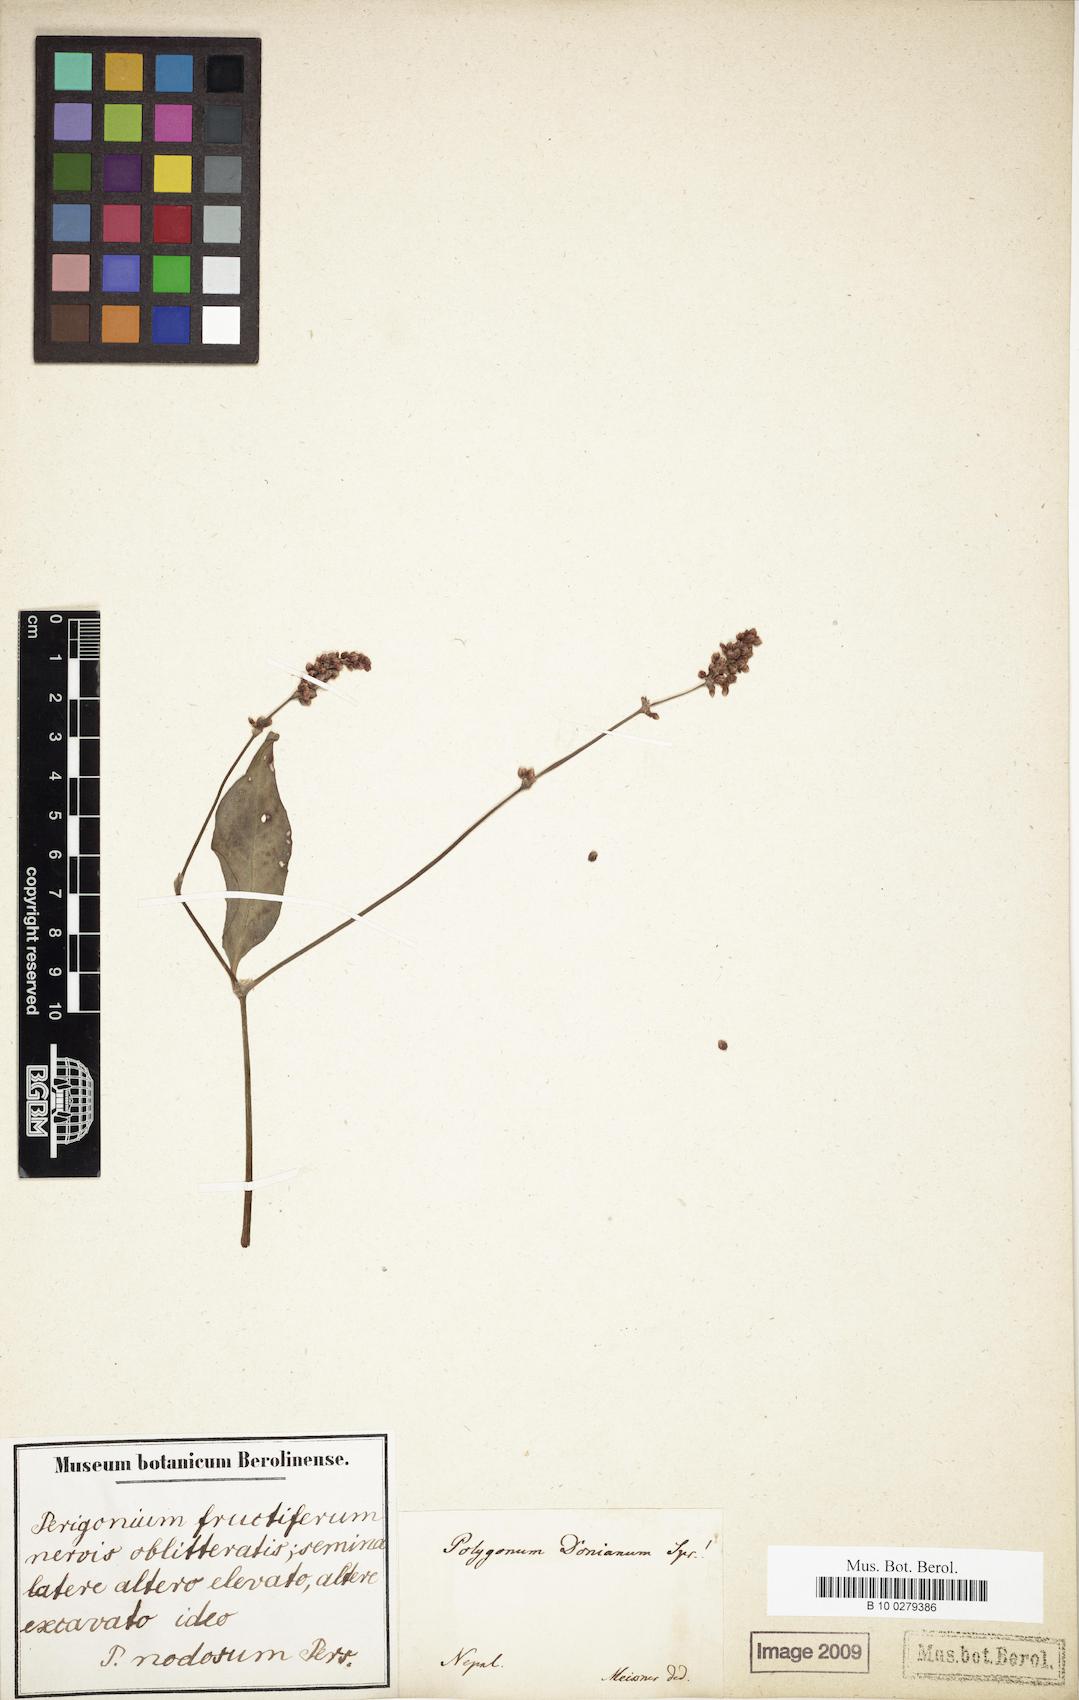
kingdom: Plantae
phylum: Tracheophyta
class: Magnoliopsida
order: Caryophyllales
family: Polygonaceae
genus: Bistorta
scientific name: Bistorta affinis
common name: Himalayan fleeceflower
